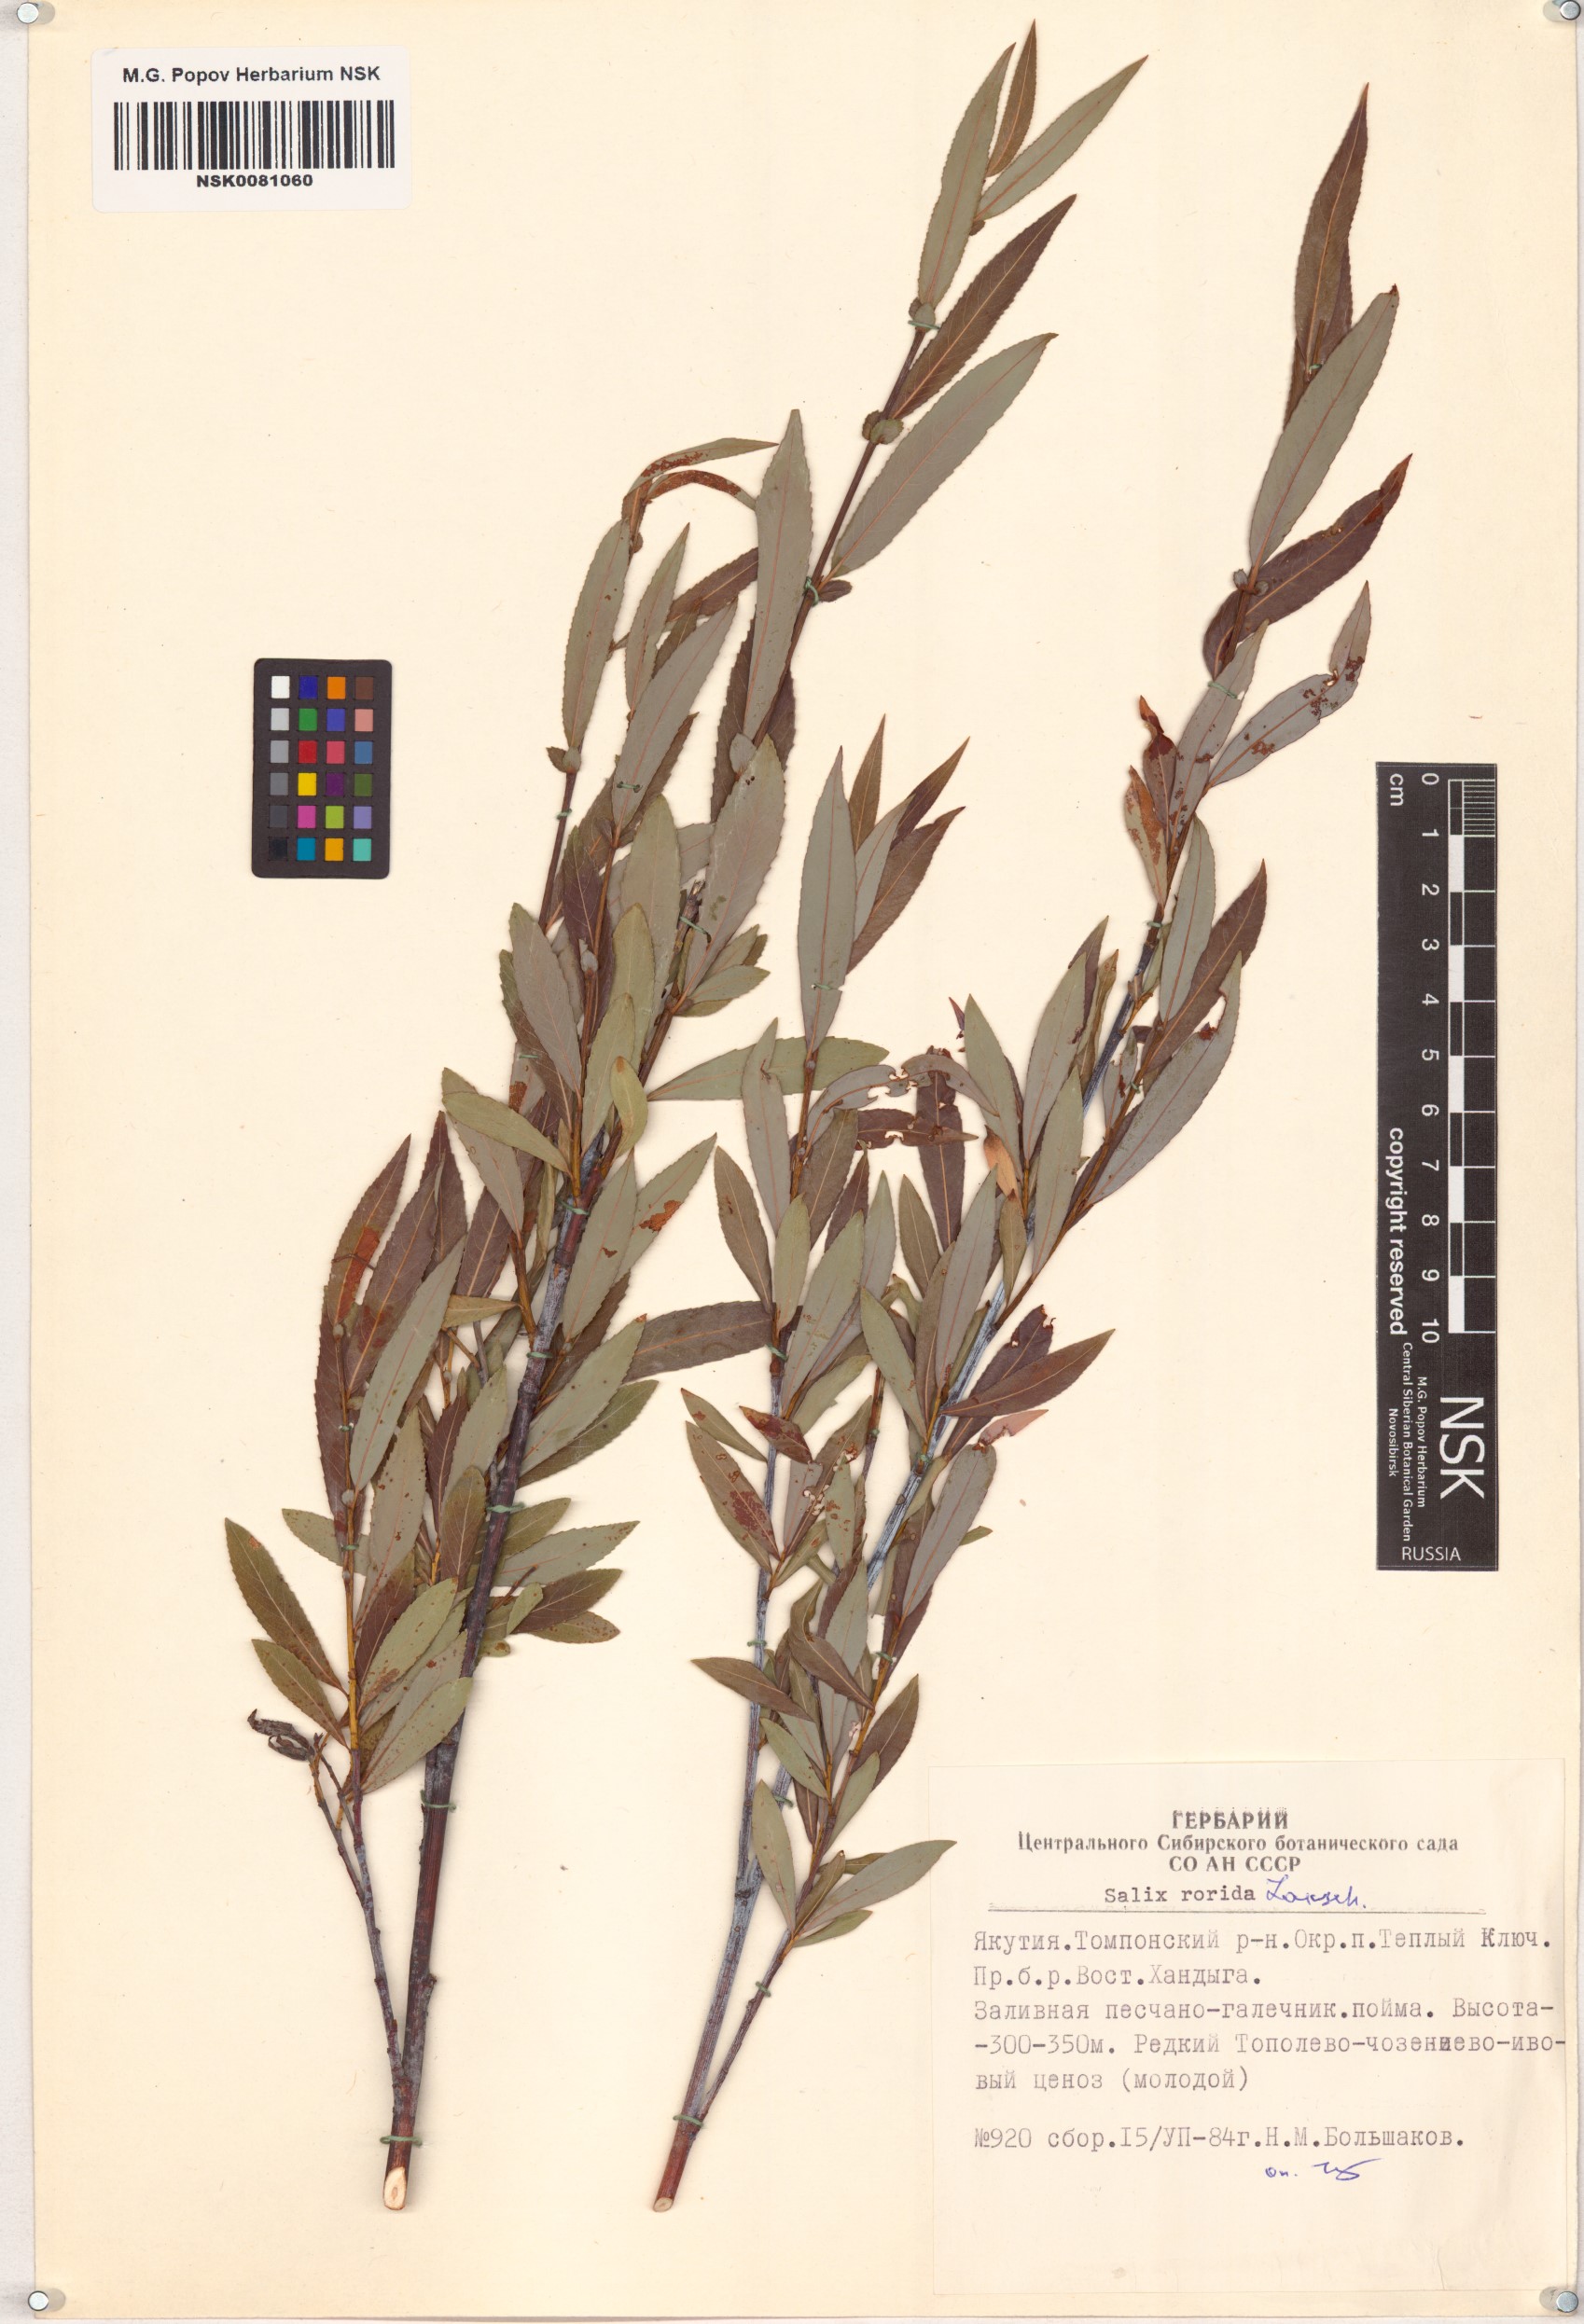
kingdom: Plantae
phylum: Tracheophyta
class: Magnoliopsida
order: Malpighiales
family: Salicaceae
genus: Salix
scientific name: Salix rorida
